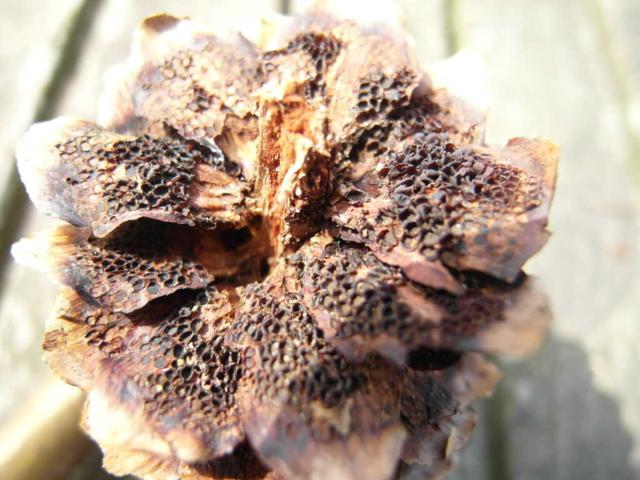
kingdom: Fungi
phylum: Basidiomycota
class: Pucciniomycetes
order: Pucciniales
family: Pucciniastraceae
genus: Thekopsora
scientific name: Thekopsora areolata
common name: grankogle-nålerust
